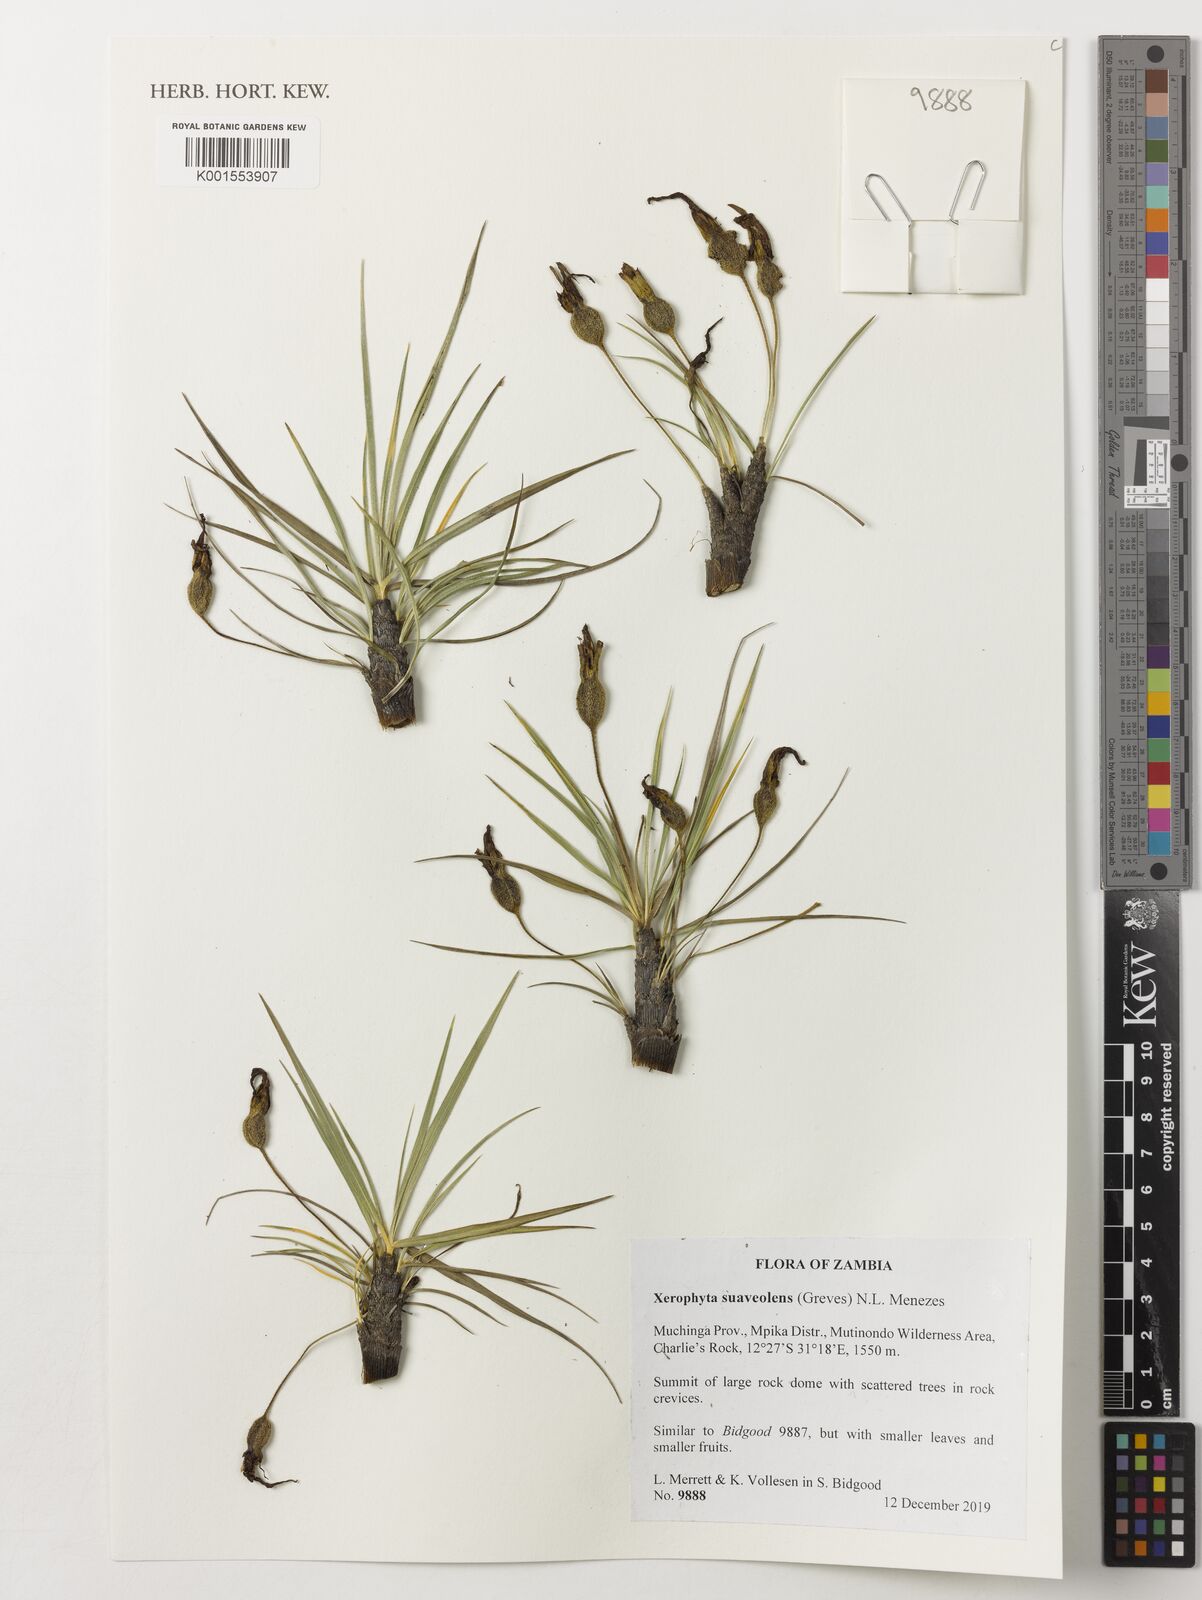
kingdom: Plantae
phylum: Tracheophyta
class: Liliopsida
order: Pandanales
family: Velloziaceae
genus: Xerophyta
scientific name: Xerophyta suaveolens
